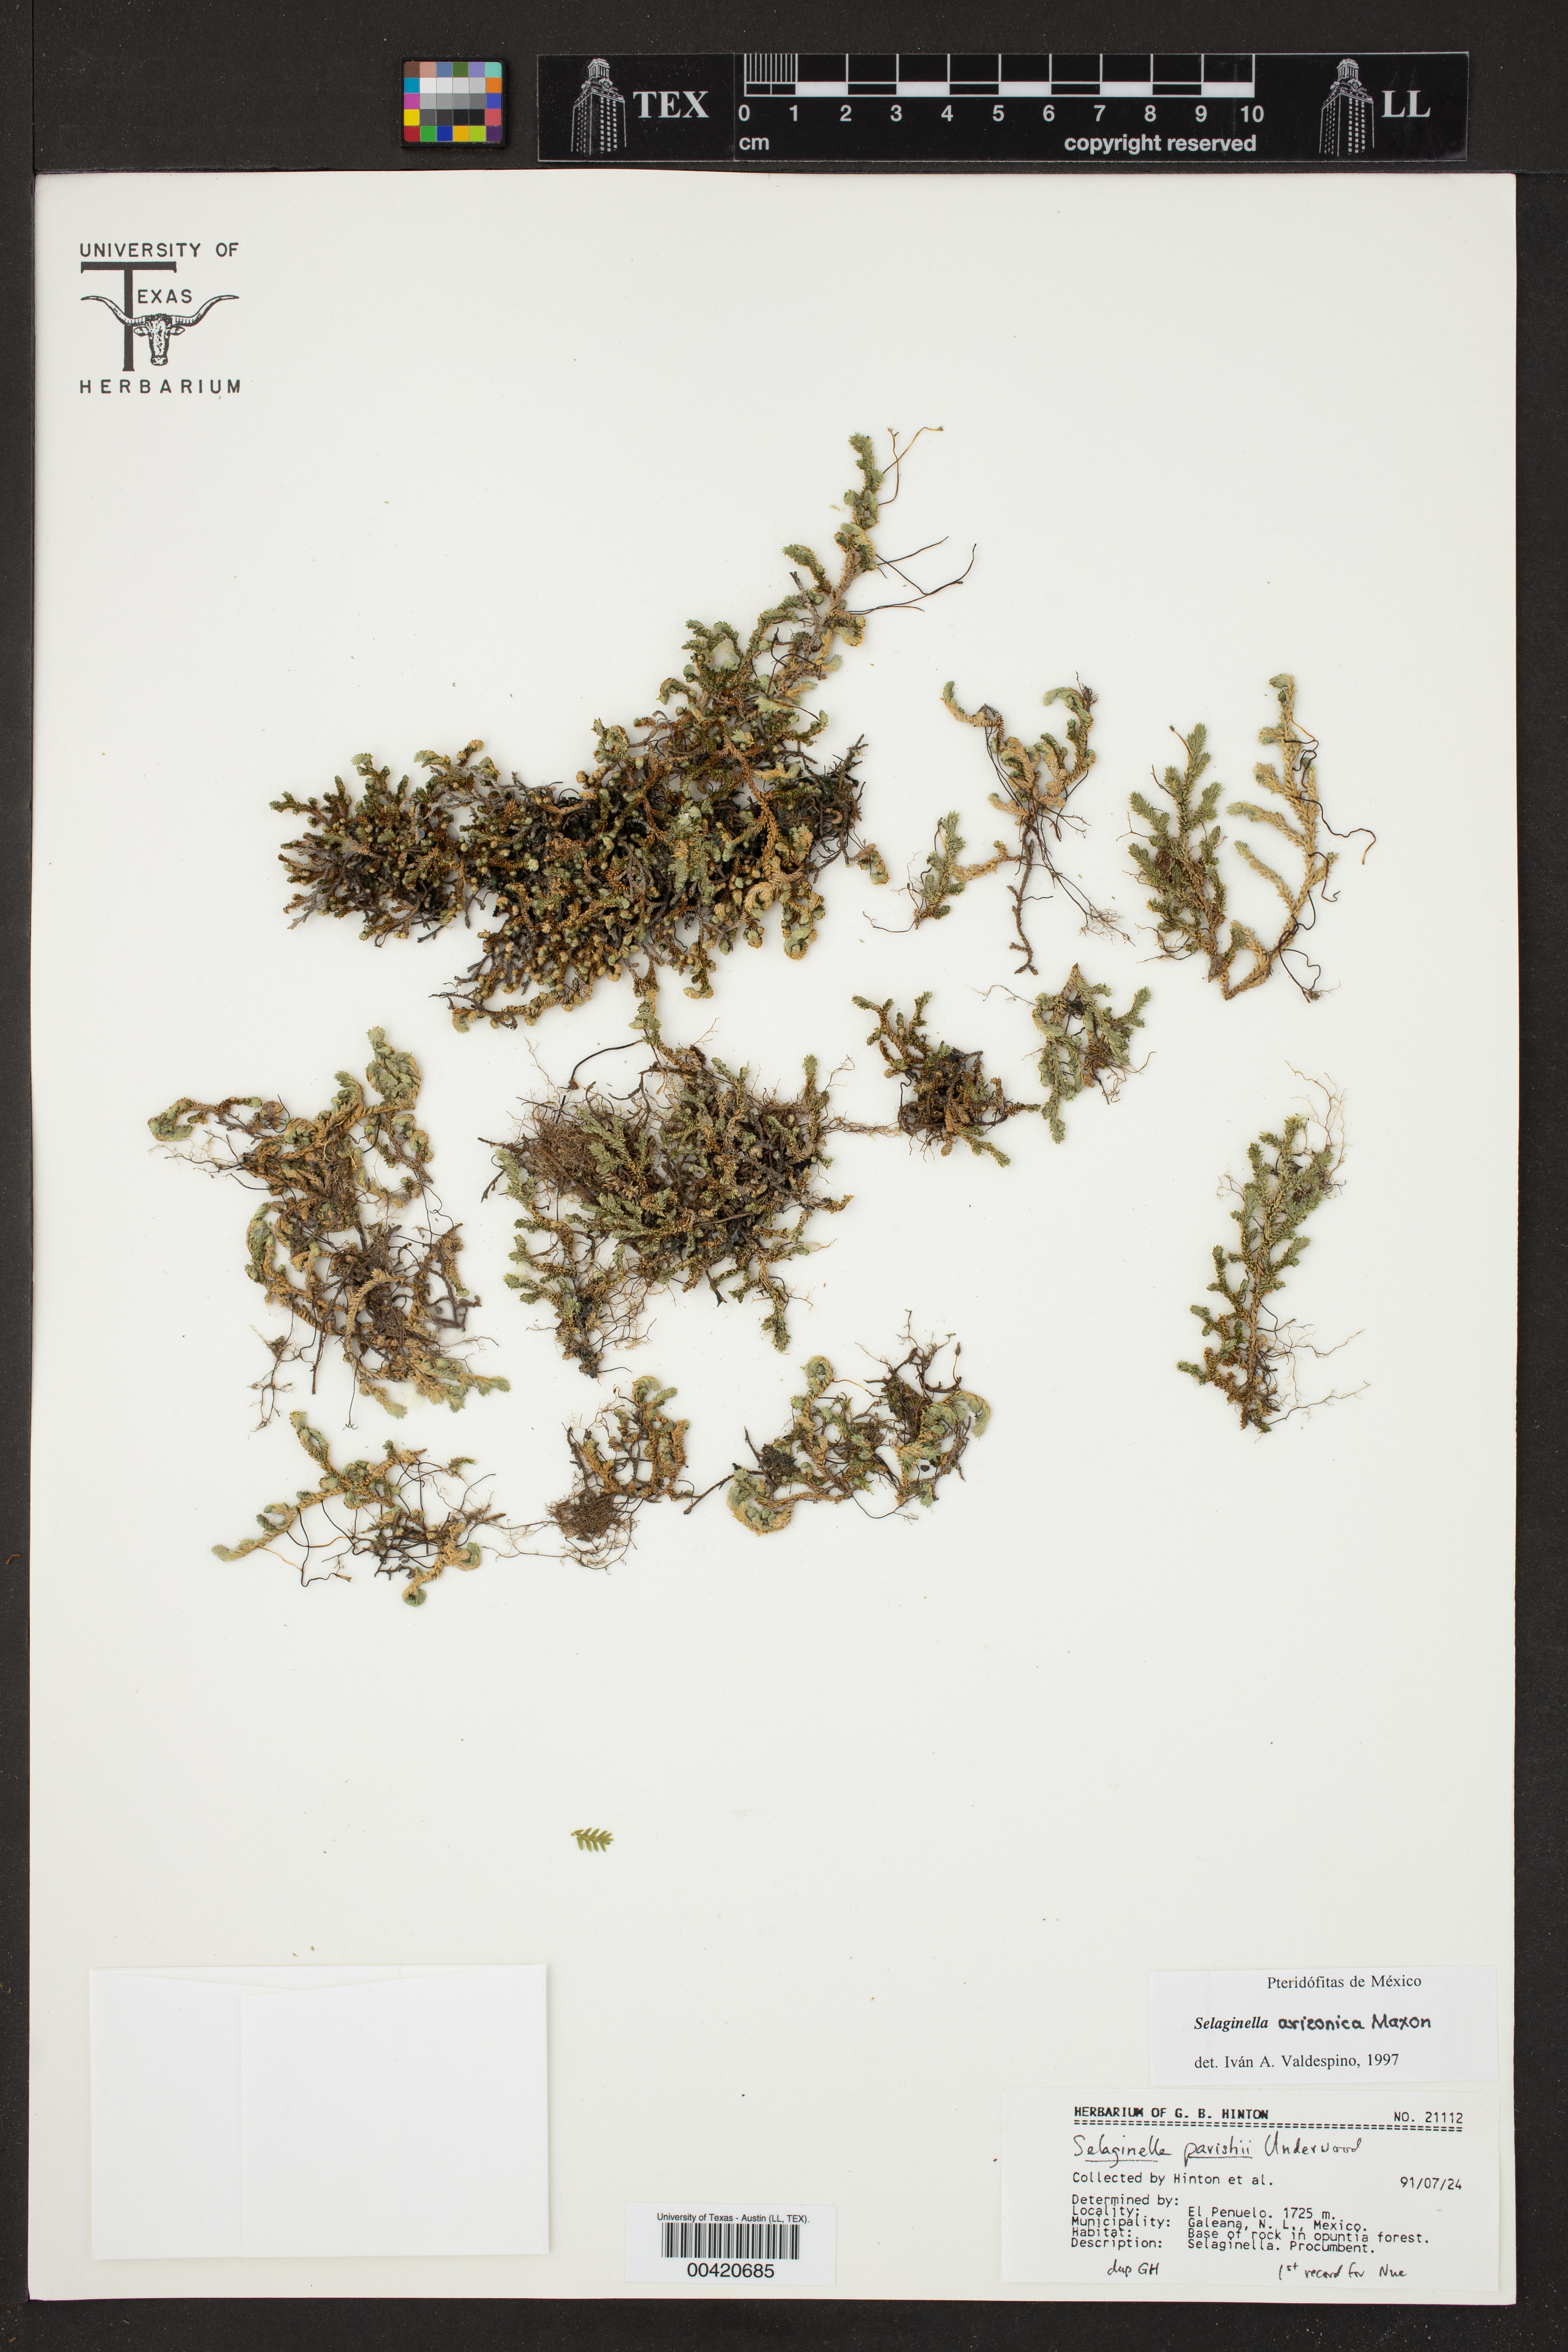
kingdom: Plantae
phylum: Tracheophyta
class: Lycopodiopsida
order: Selaginellales
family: Selaginellaceae
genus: Selaginella
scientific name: Selaginella arizonica
